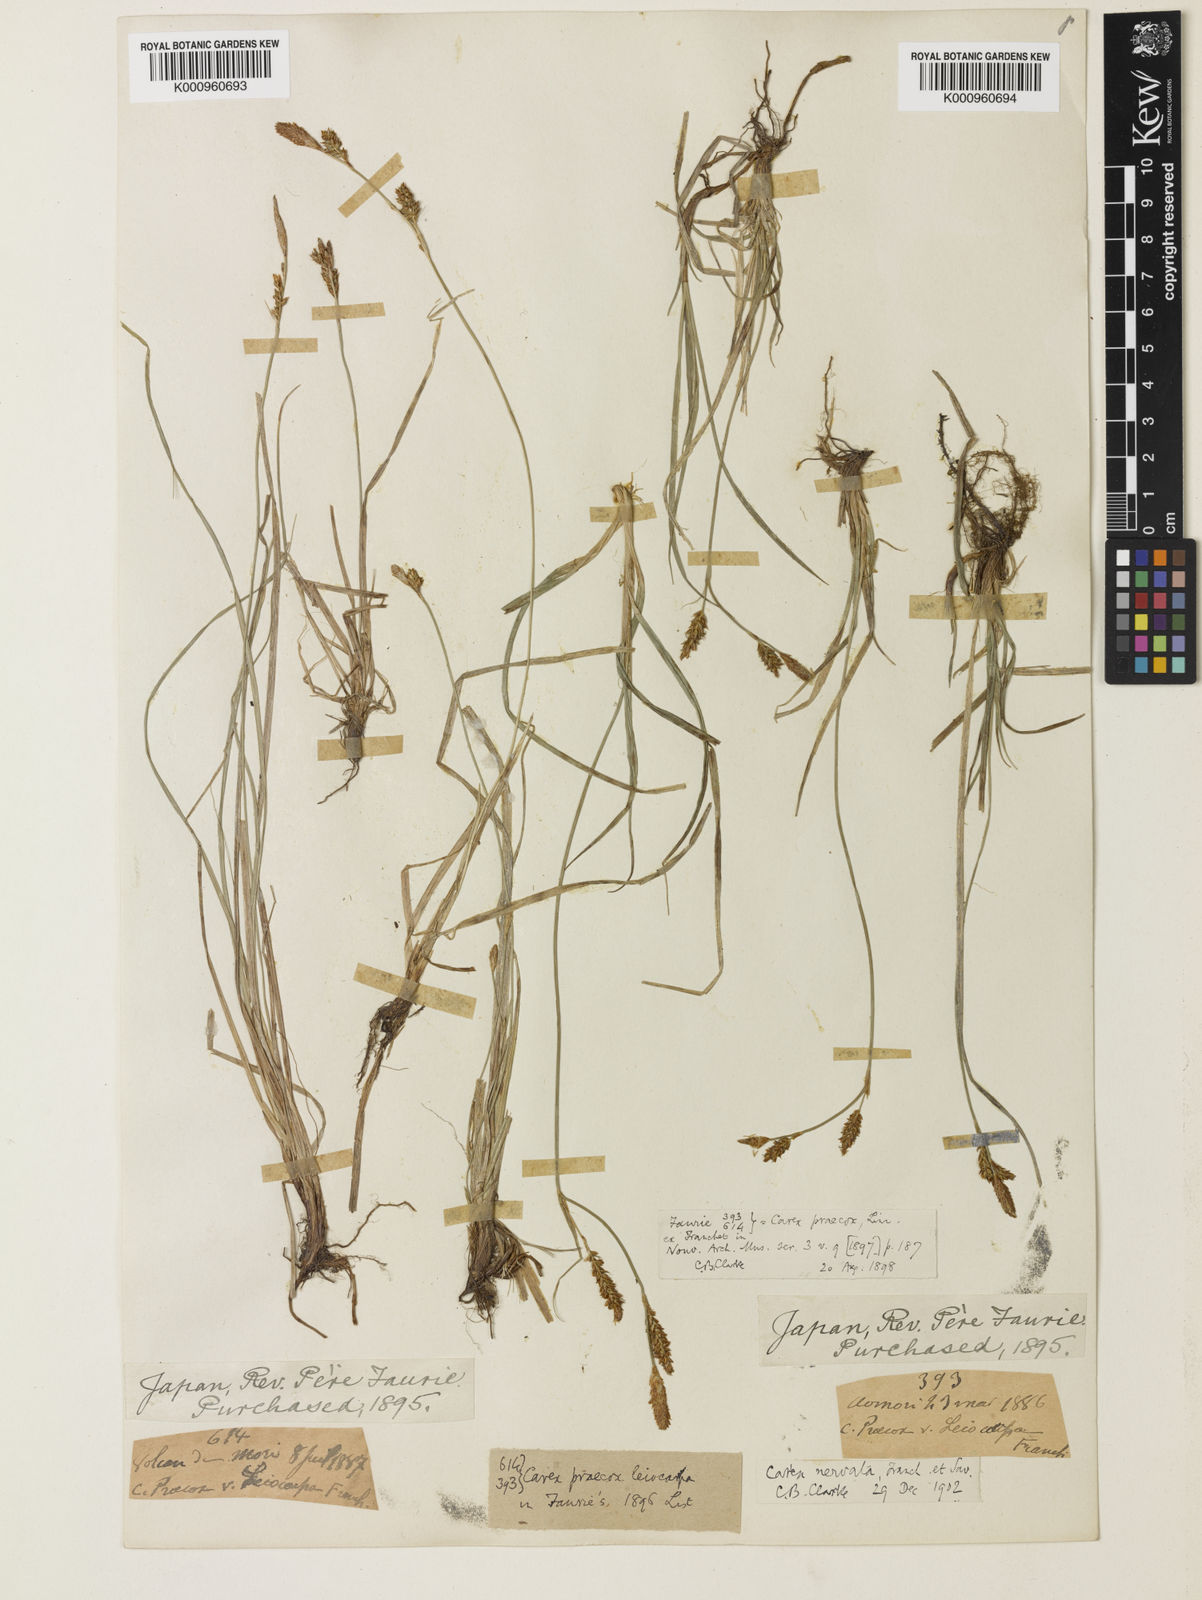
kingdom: Plantae
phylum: Tracheophyta
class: Liliopsida
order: Poales
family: Cyperaceae
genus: Carex
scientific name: Carex caryophyllea
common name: Spring sedge
